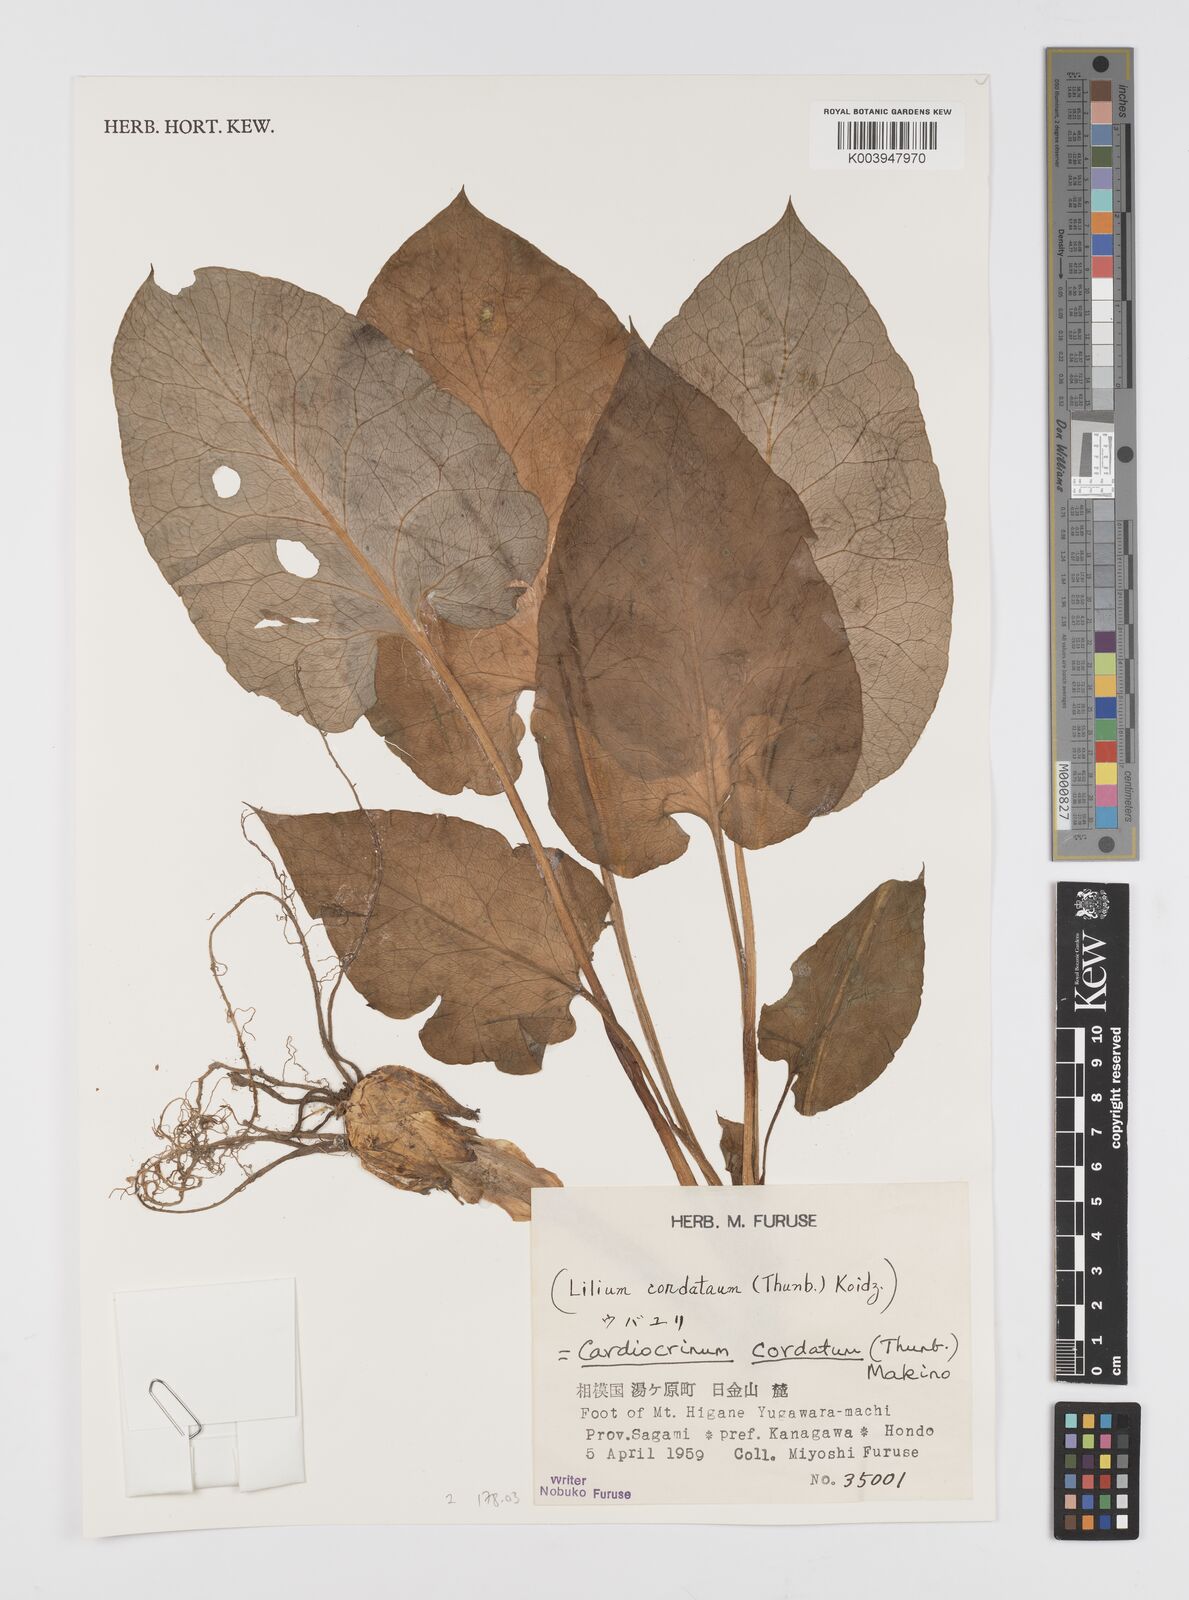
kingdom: Plantae
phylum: Tracheophyta
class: Liliopsida
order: Liliales
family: Liliaceae
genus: Cardiocrinum
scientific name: Cardiocrinum cordatum
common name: Lily
